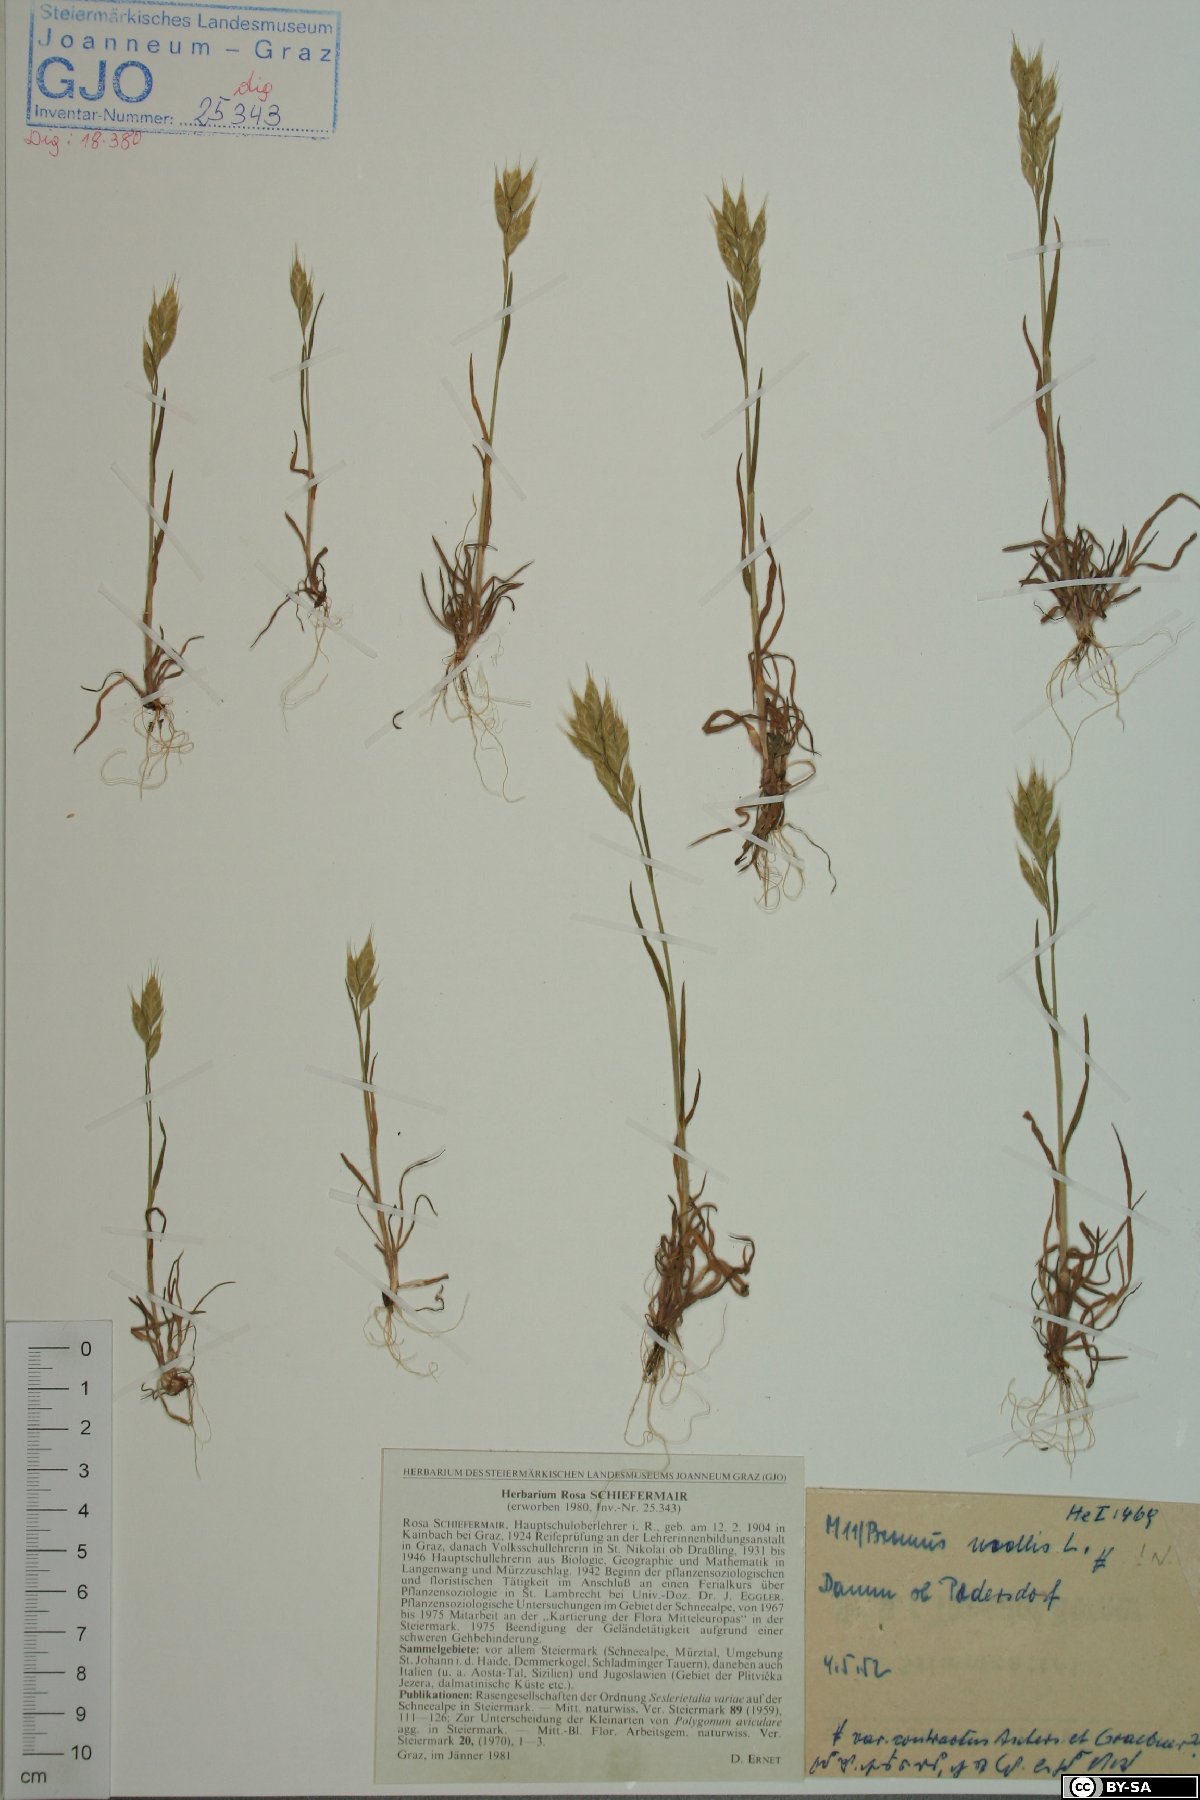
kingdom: Plantae
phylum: Tracheophyta
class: Liliopsida
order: Poales
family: Poaceae
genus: Bromus
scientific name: Bromus hordeaceus
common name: Soft brome
